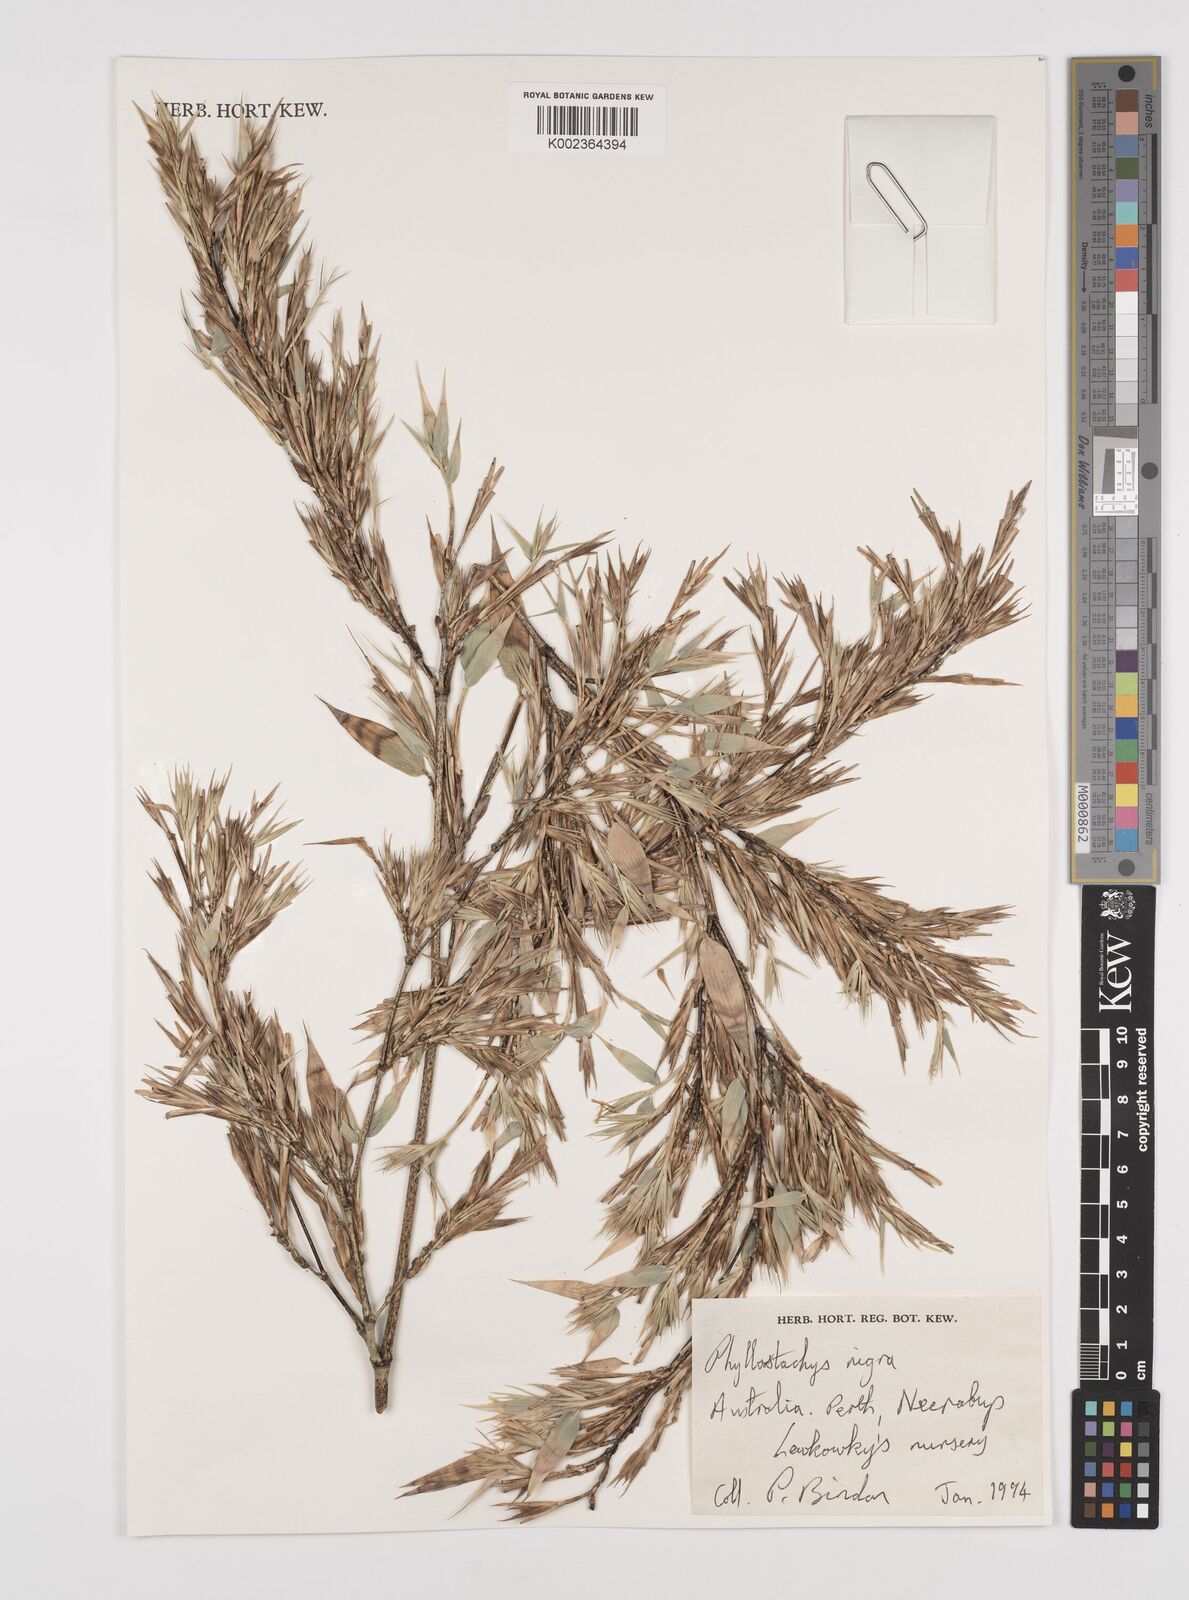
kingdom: Plantae
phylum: Tracheophyta
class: Liliopsida
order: Poales
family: Poaceae
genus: Phyllostachys
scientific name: Phyllostachys nigra
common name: Black bamboo
